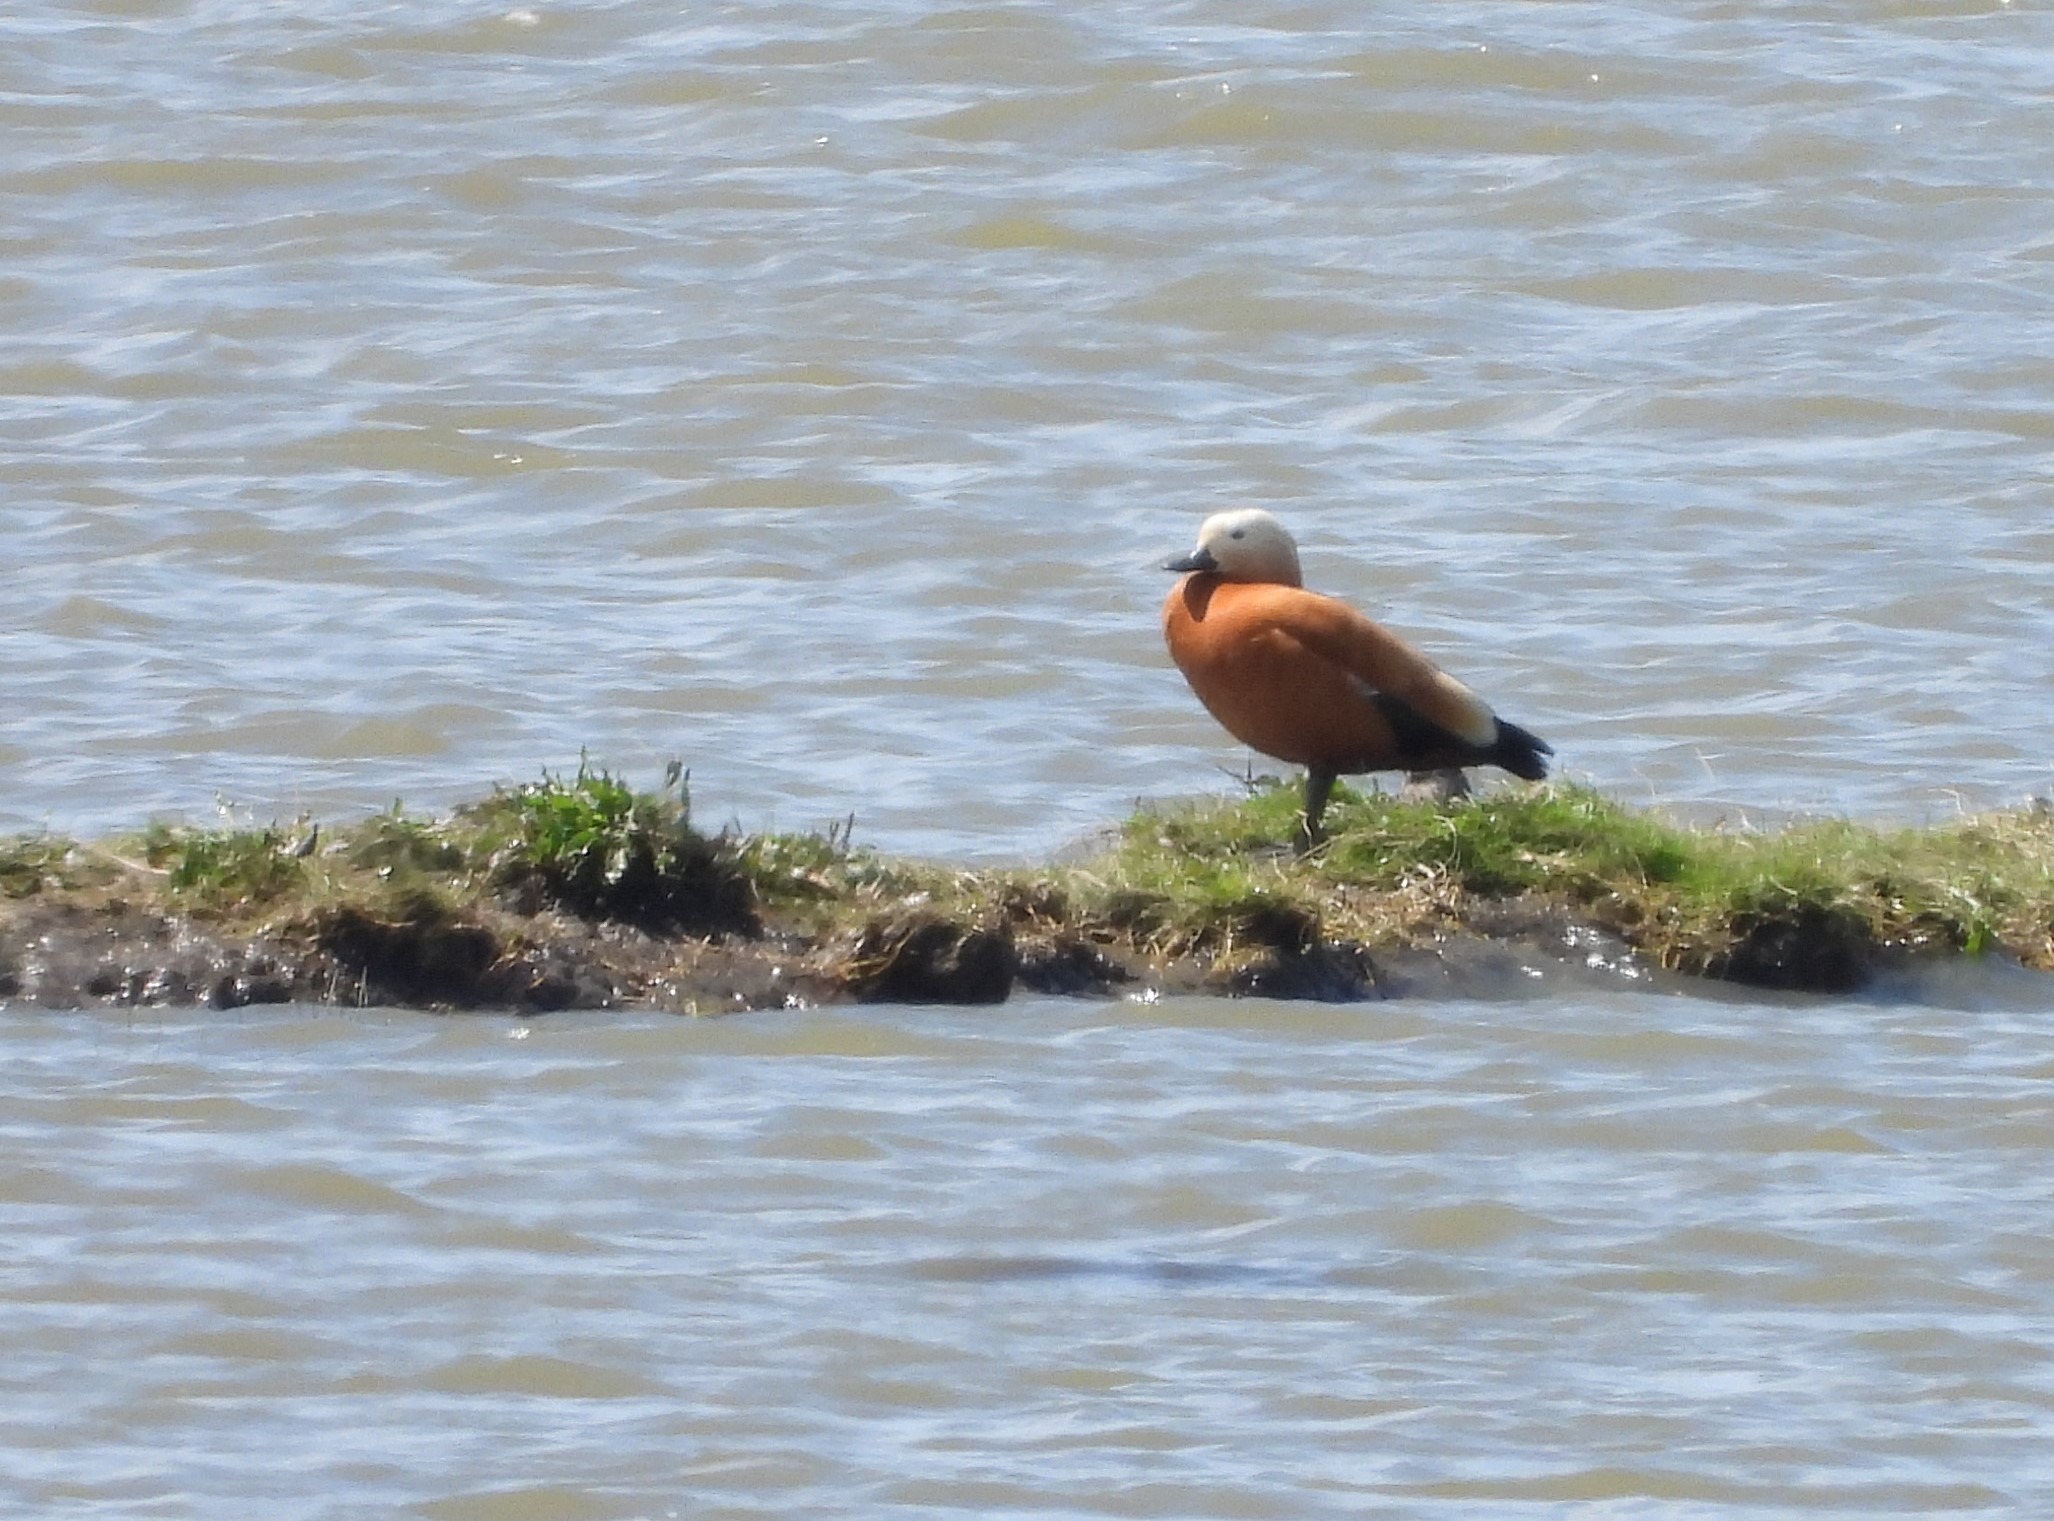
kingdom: Animalia
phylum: Chordata
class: Aves
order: Anseriformes
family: Anatidae
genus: Tadorna
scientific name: Tadorna ferruginea
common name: Rustand
